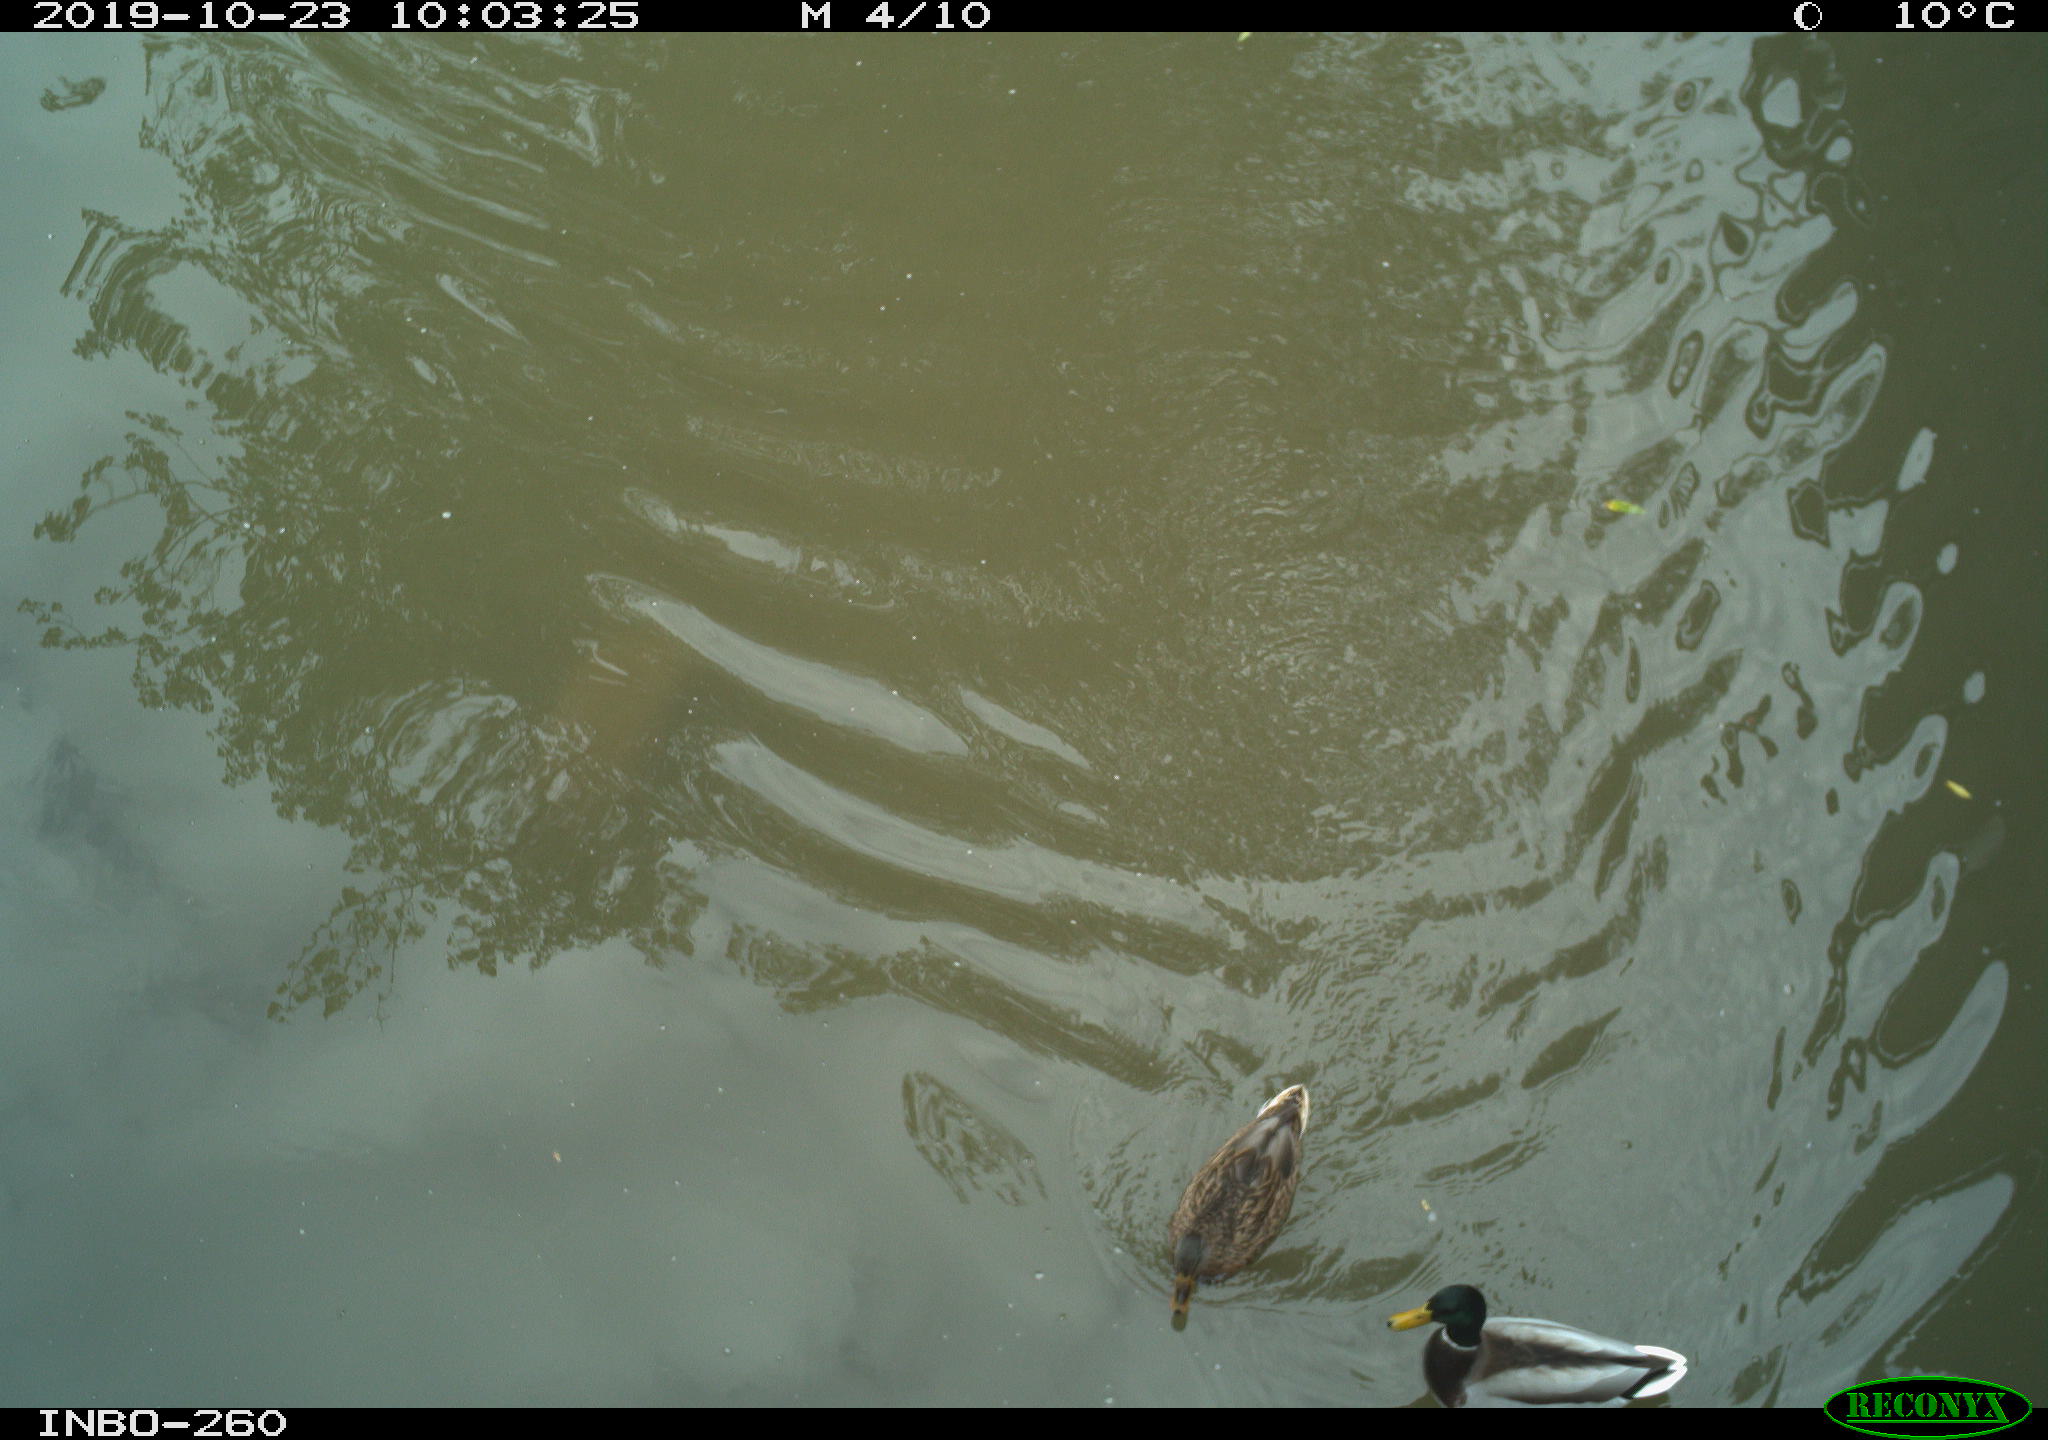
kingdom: Animalia
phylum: Chordata
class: Aves
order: Anseriformes
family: Anatidae
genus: Anas
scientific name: Anas platyrhynchos
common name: Mallard
